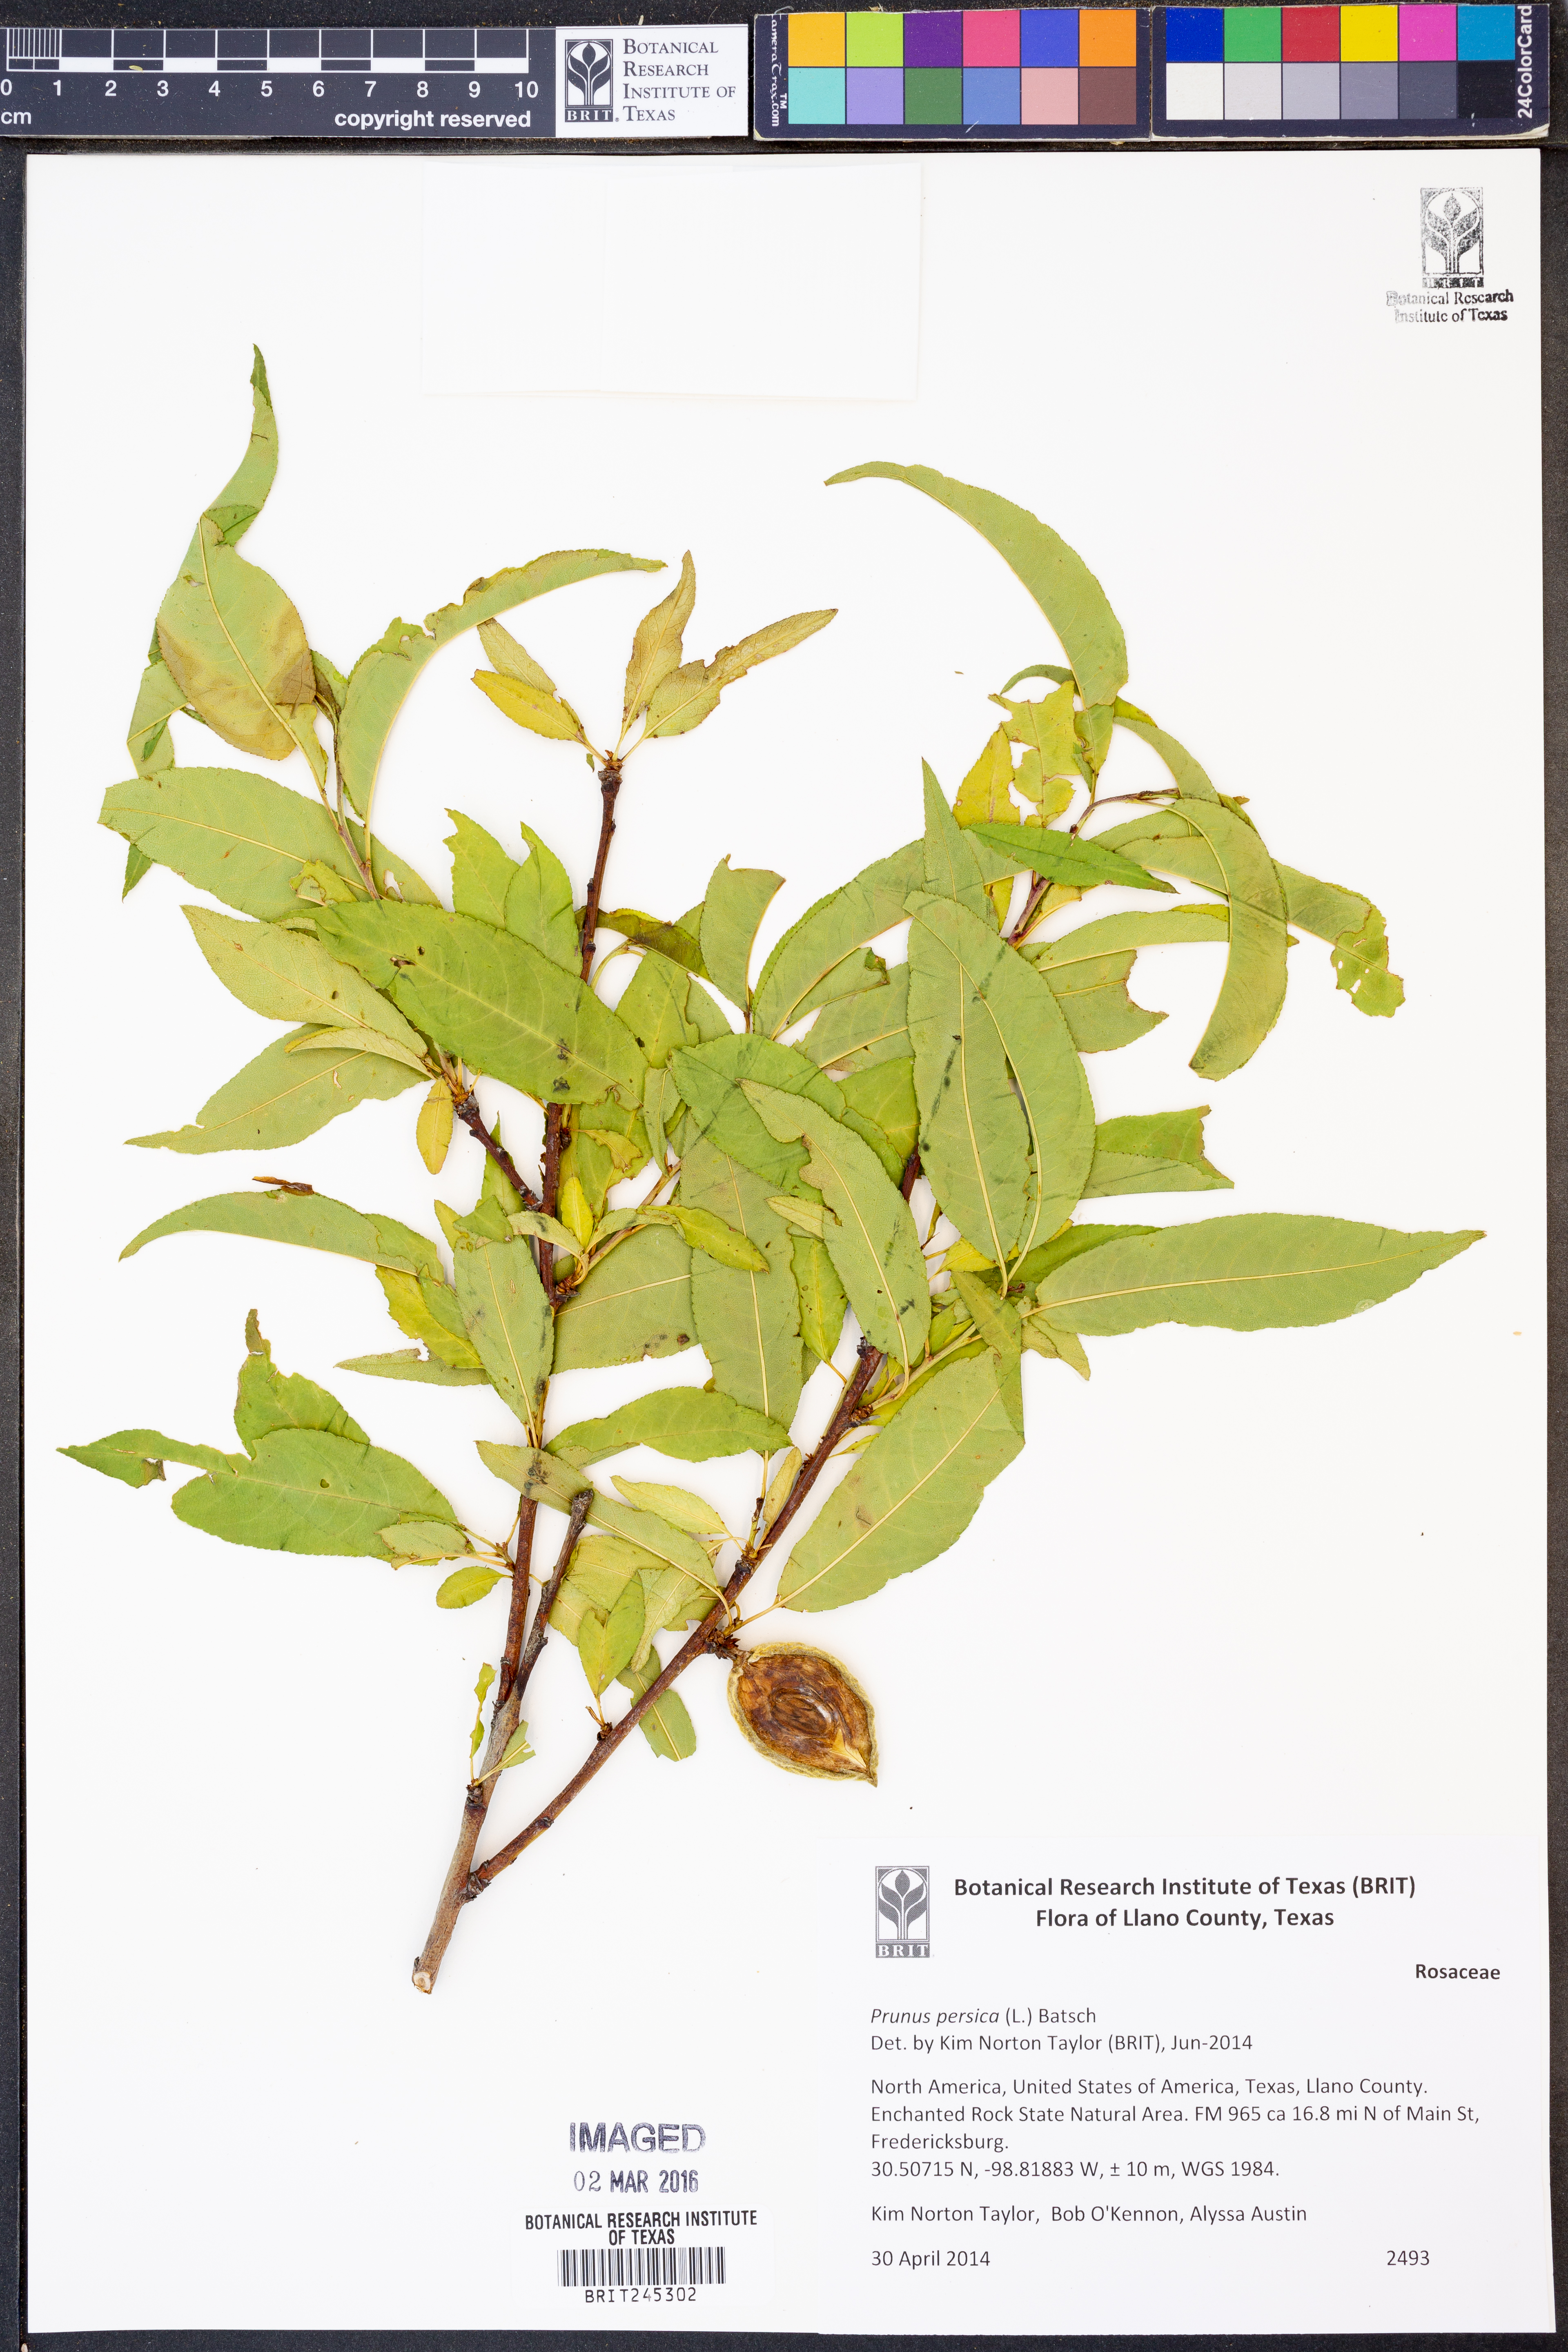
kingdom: Plantae
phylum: Tracheophyta
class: Magnoliopsida
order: Rosales
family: Rosaceae
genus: Prunus
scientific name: Prunus persica
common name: Peach
